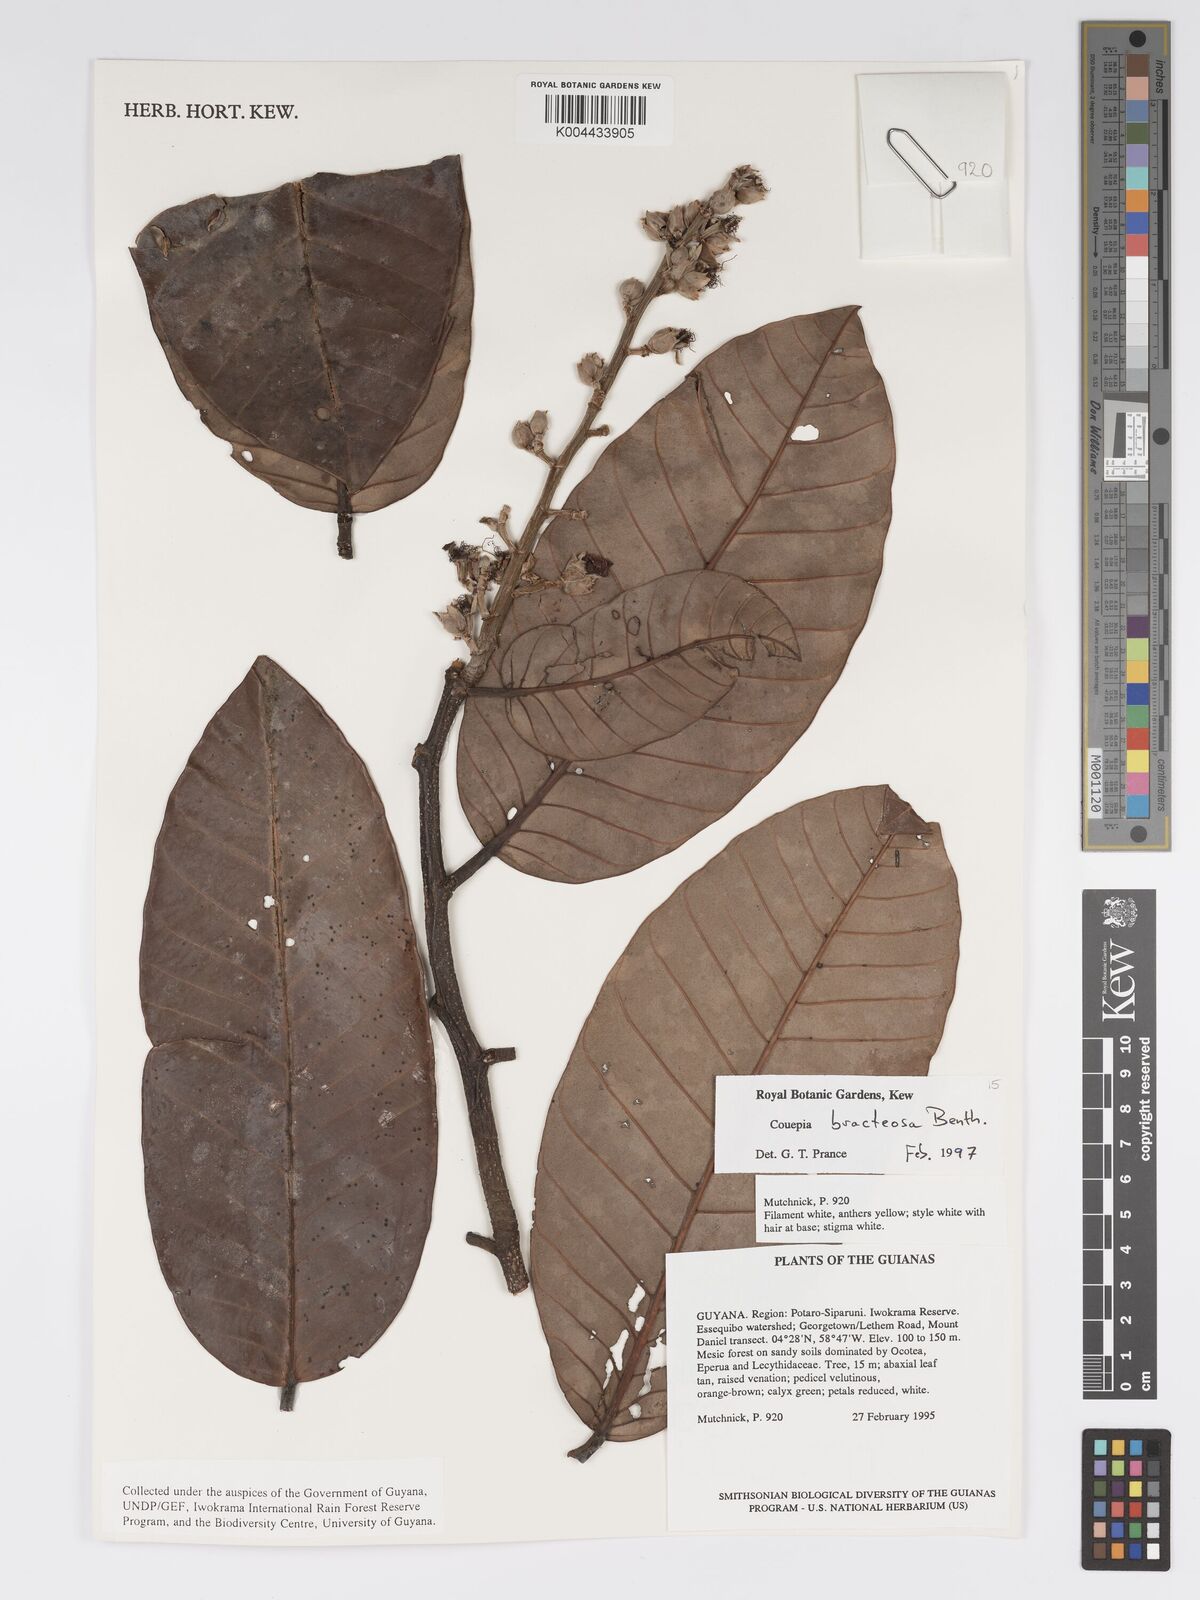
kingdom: Plantae
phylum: Tracheophyta
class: Magnoliopsida
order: Malpighiales
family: Chrysobalanaceae
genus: Couepia
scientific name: Couepia bracteosa
